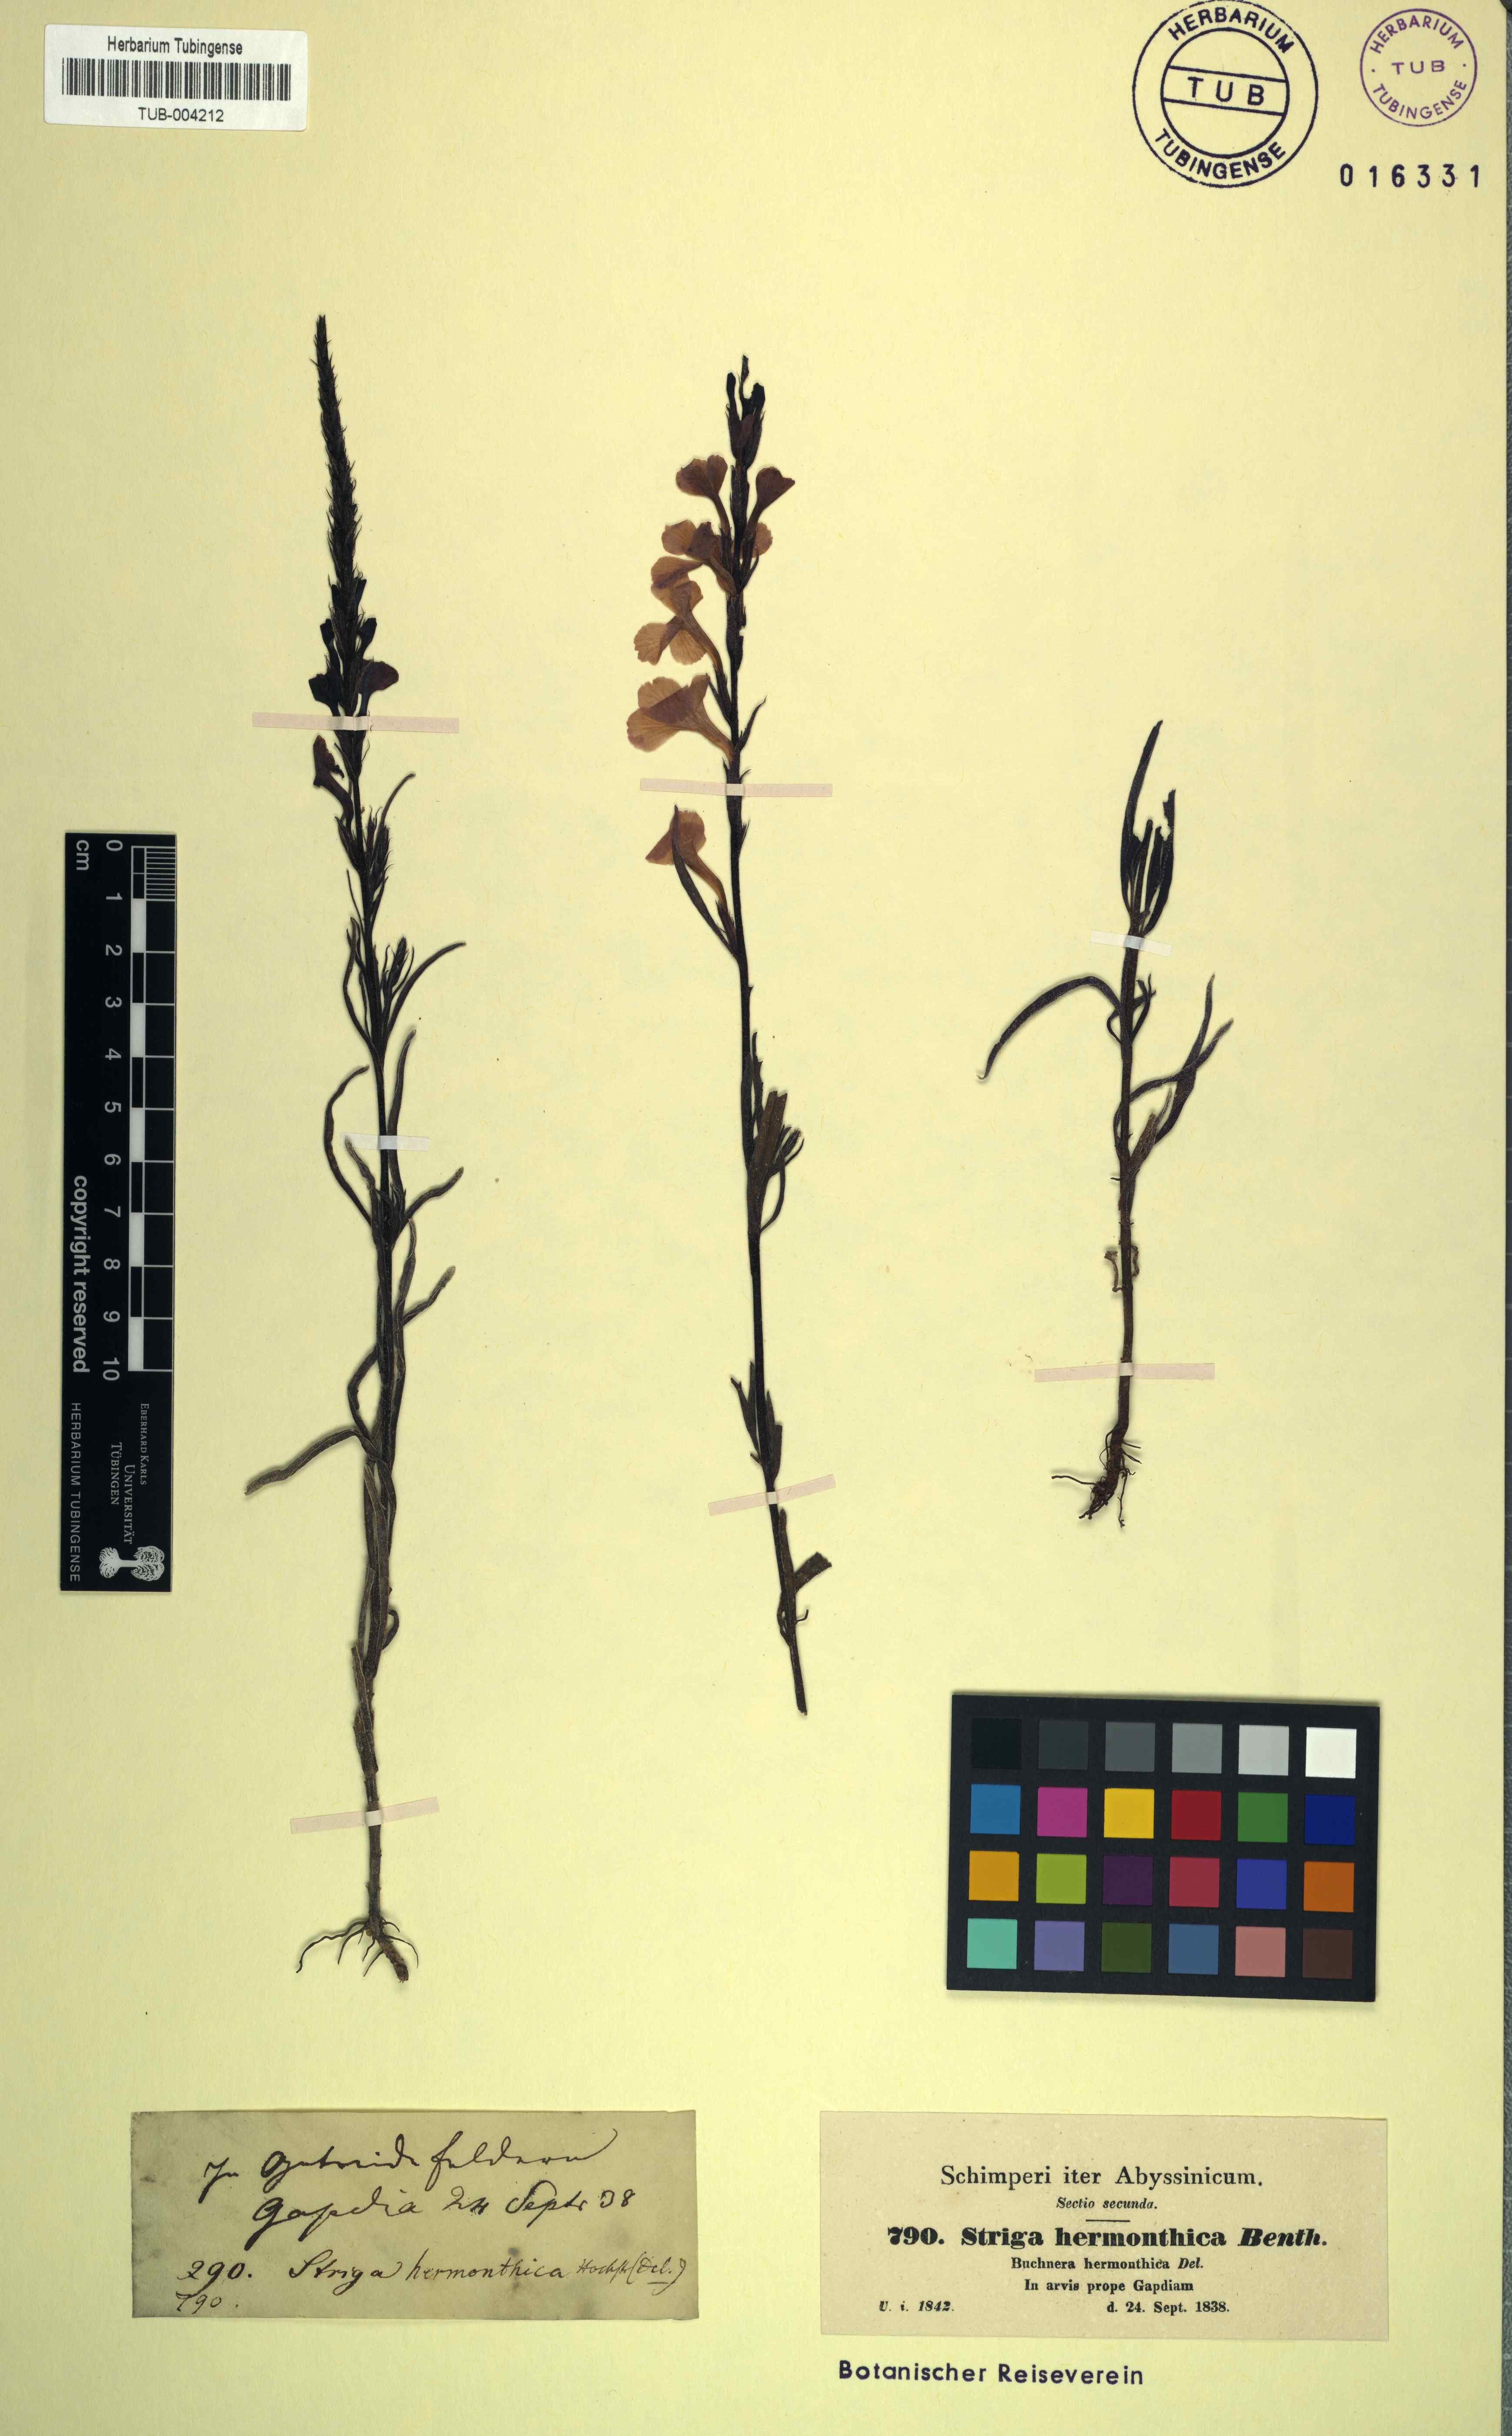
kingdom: Plantae
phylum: Tracheophyta
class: Magnoliopsida
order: Lamiales
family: Orobanchaceae
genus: Striga
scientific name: Striga hermonthica
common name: Purple witchweed
